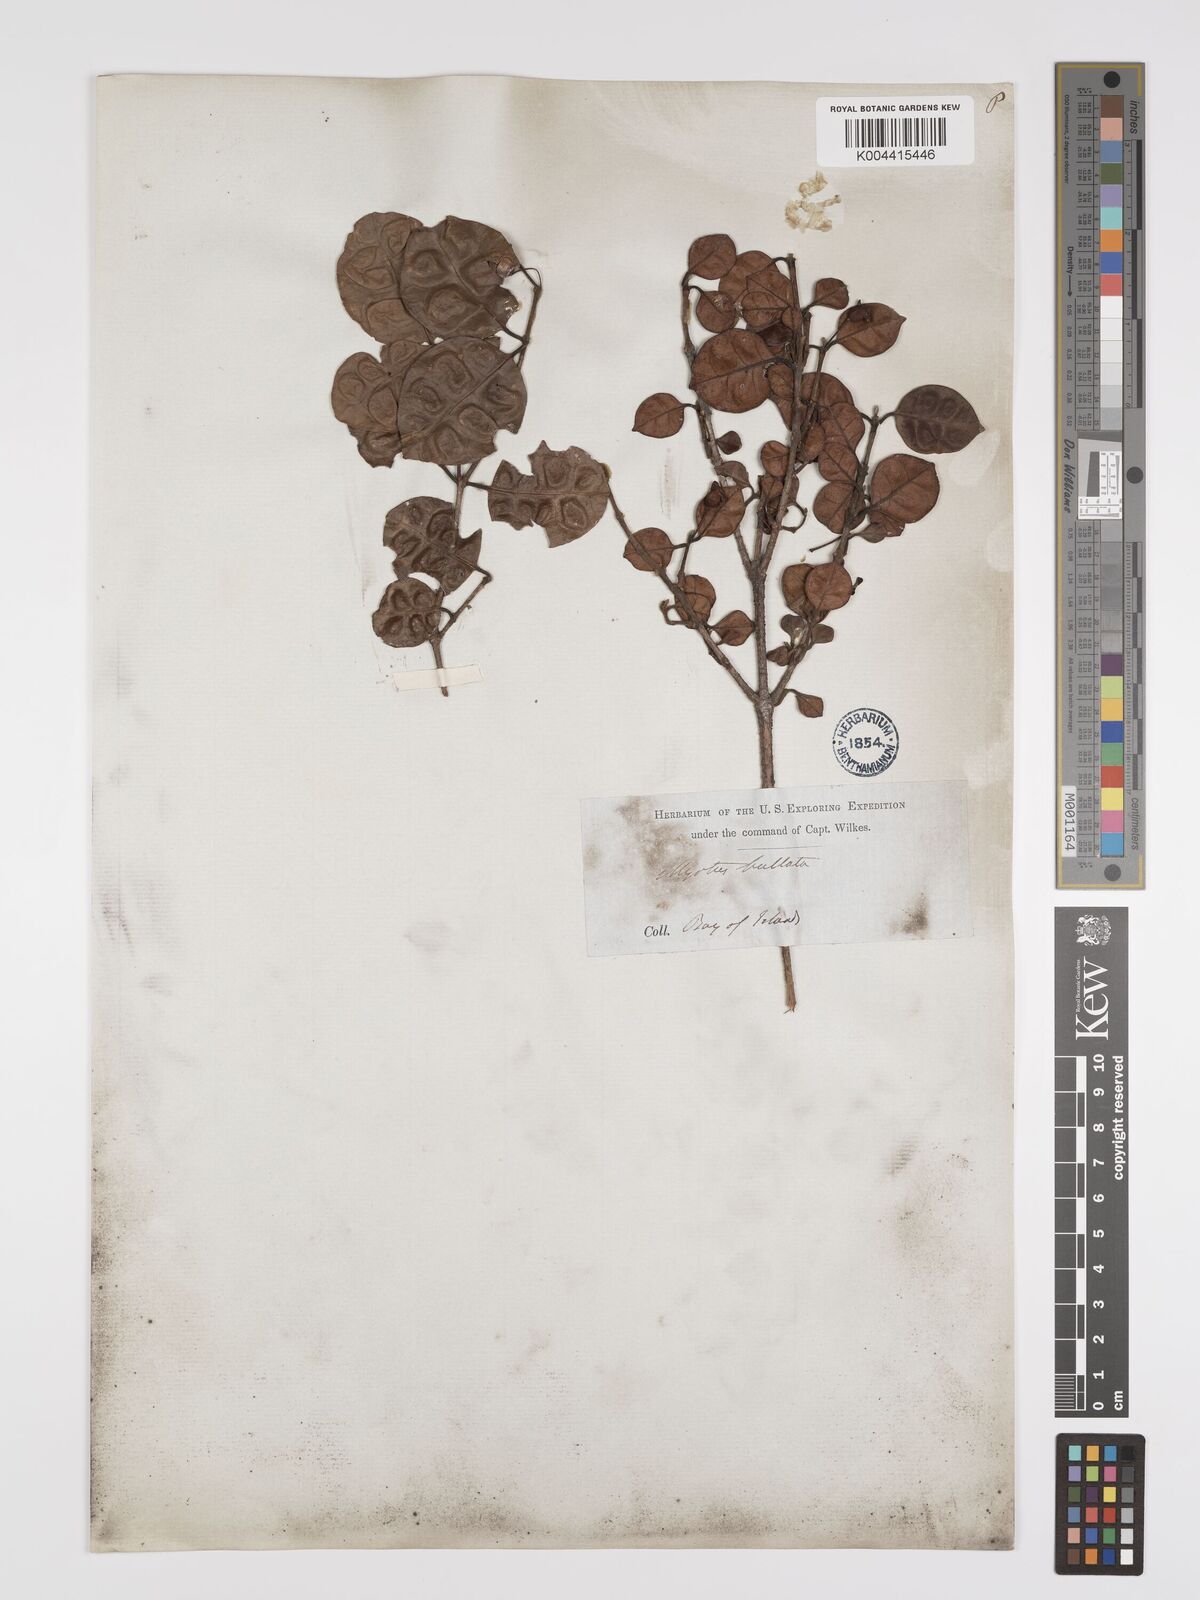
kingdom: Plantae
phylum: Tracheophyta
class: Magnoliopsida
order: Myrtales
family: Myrtaceae
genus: Lophomyrtus
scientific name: Lophomyrtus bullata
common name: Rama rama
